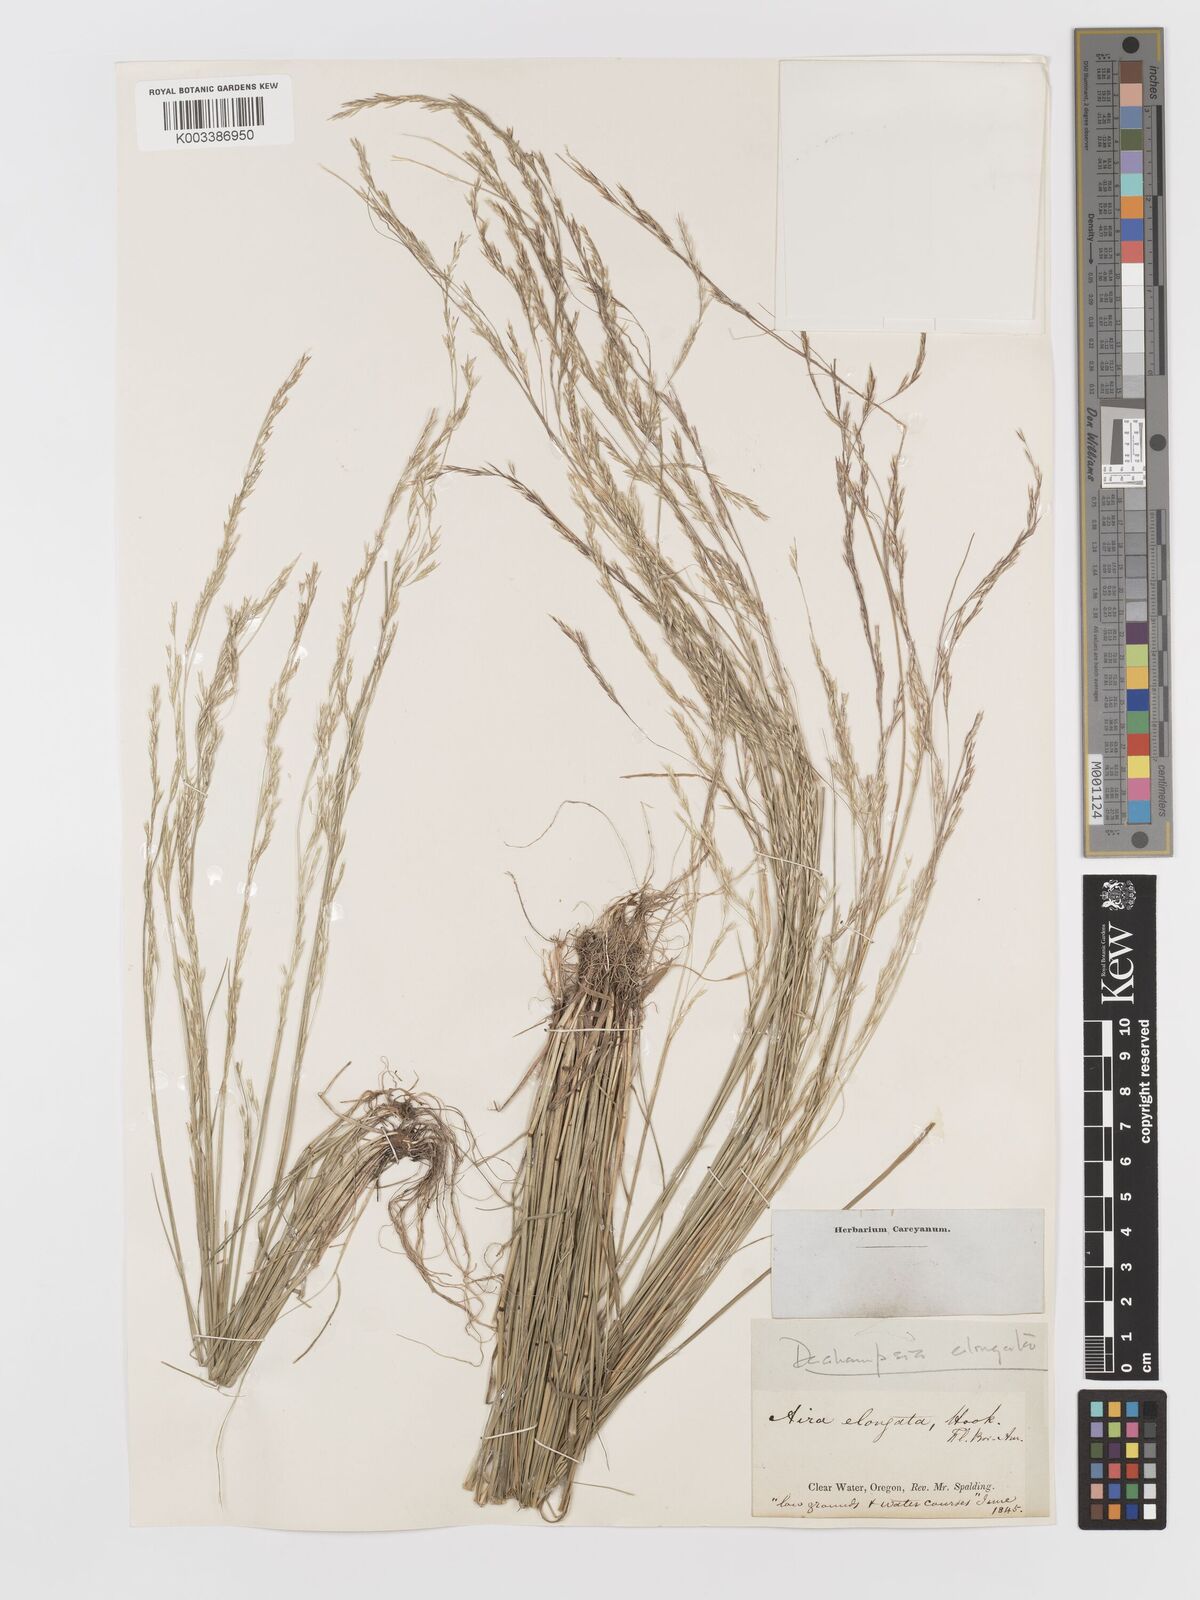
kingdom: Plantae
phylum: Tracheophyta
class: Liliopsida
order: Poales
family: Poaceae
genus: Deschampsia
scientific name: Deschampsia elongata
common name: Slender hairgrass
